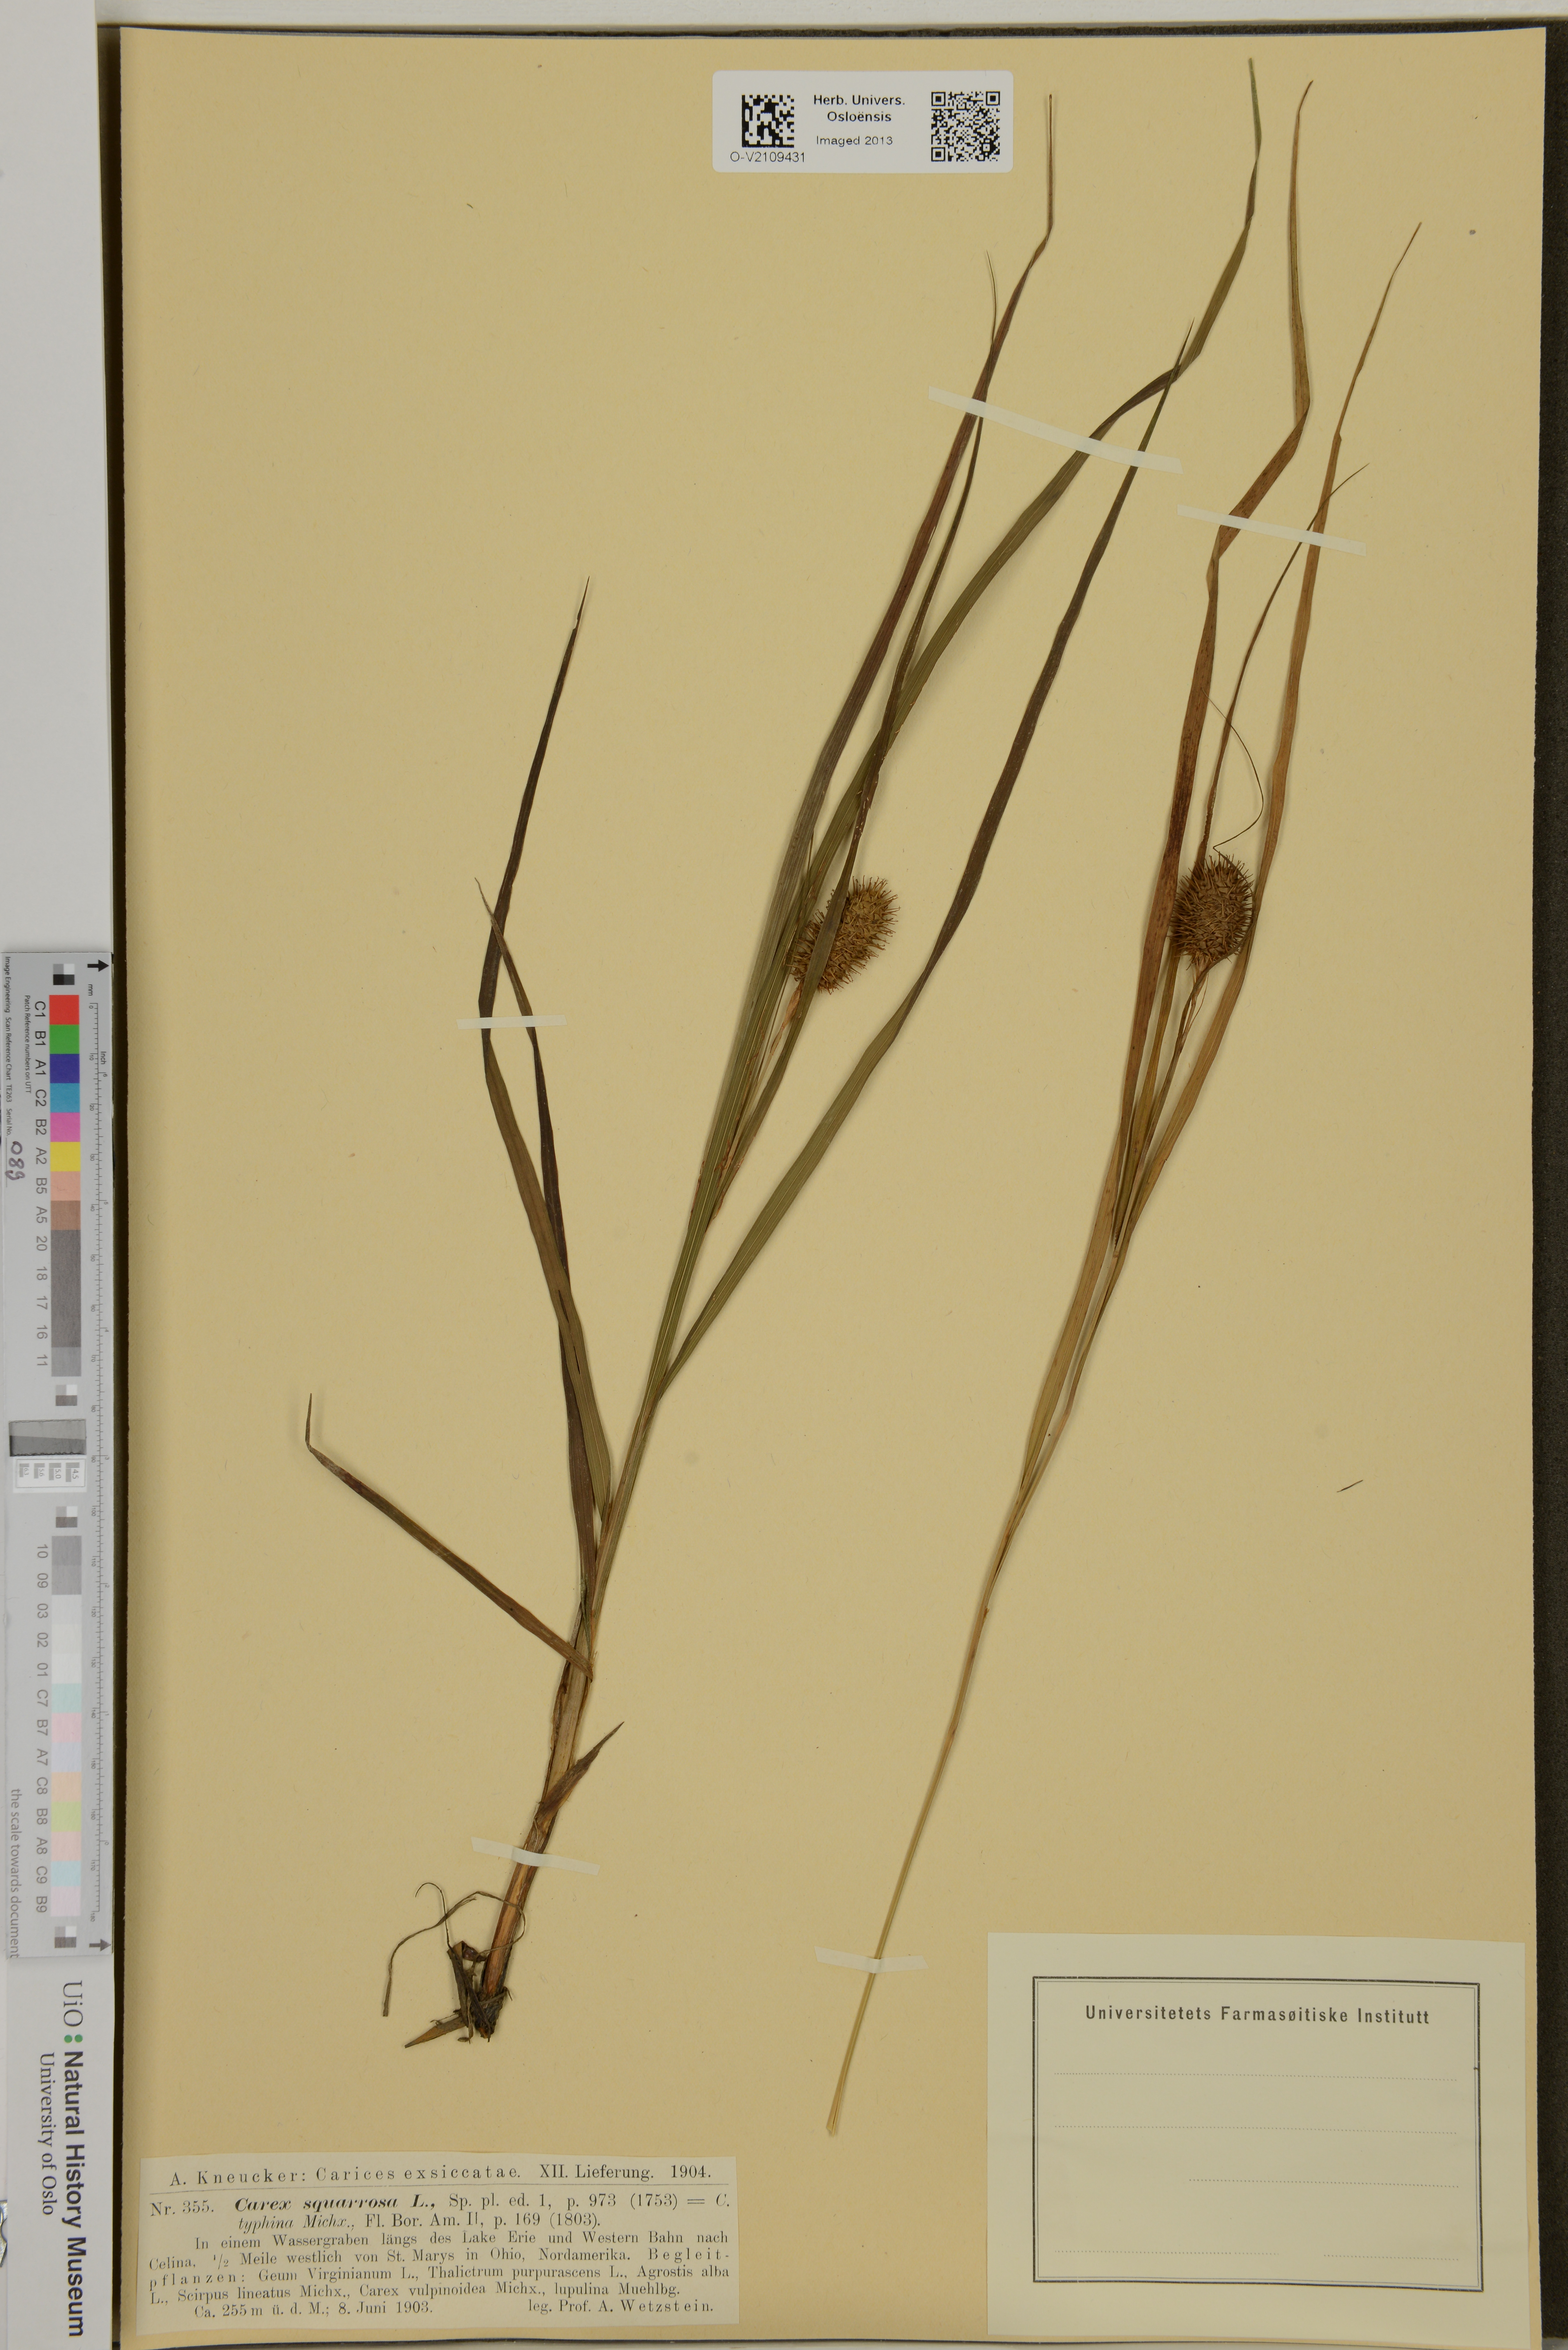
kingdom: Plantae
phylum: Tracheophyta
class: Liliopsida
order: Poales
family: Cyperaceae
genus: Carex
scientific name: Carex squarrosa
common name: Narrow-leaved cattail sedge
